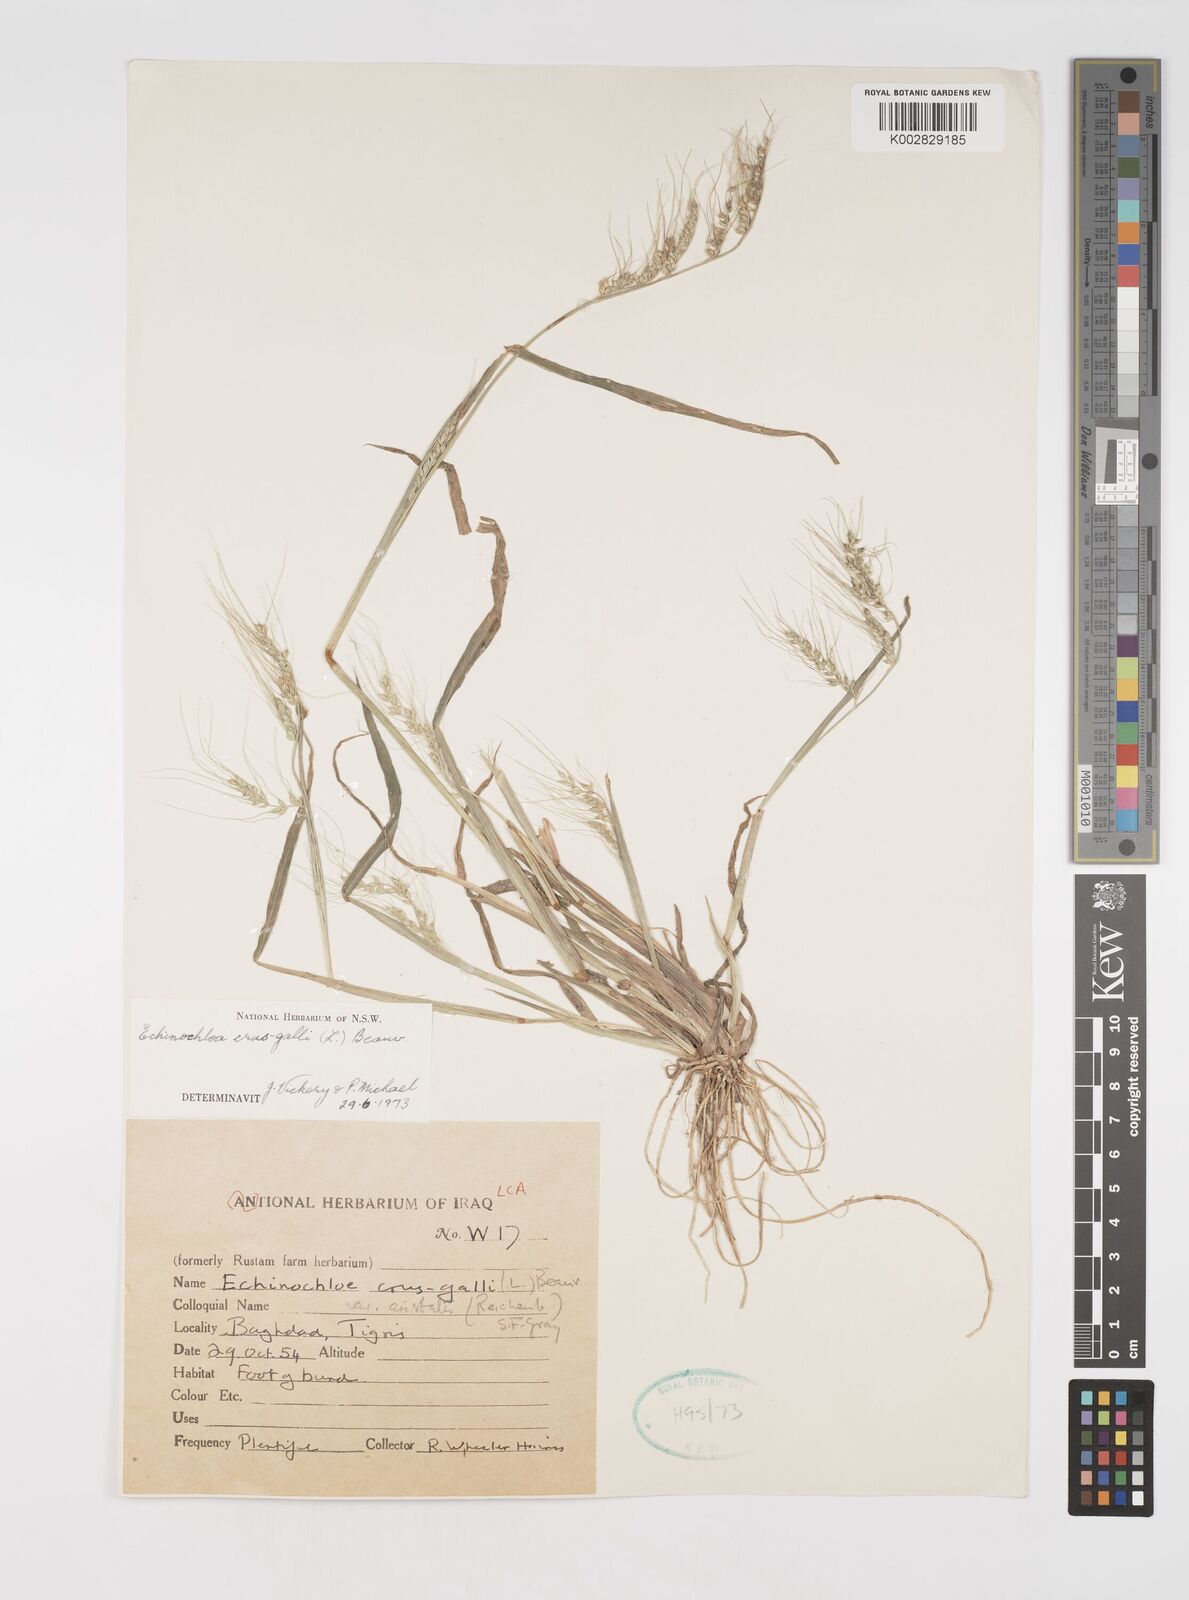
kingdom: Plantae
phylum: Tracheophyta
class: Liliopsida
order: Poales
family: Poaceae
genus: Echinochloa
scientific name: Echinochloa crus-galli
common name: Cockspur
